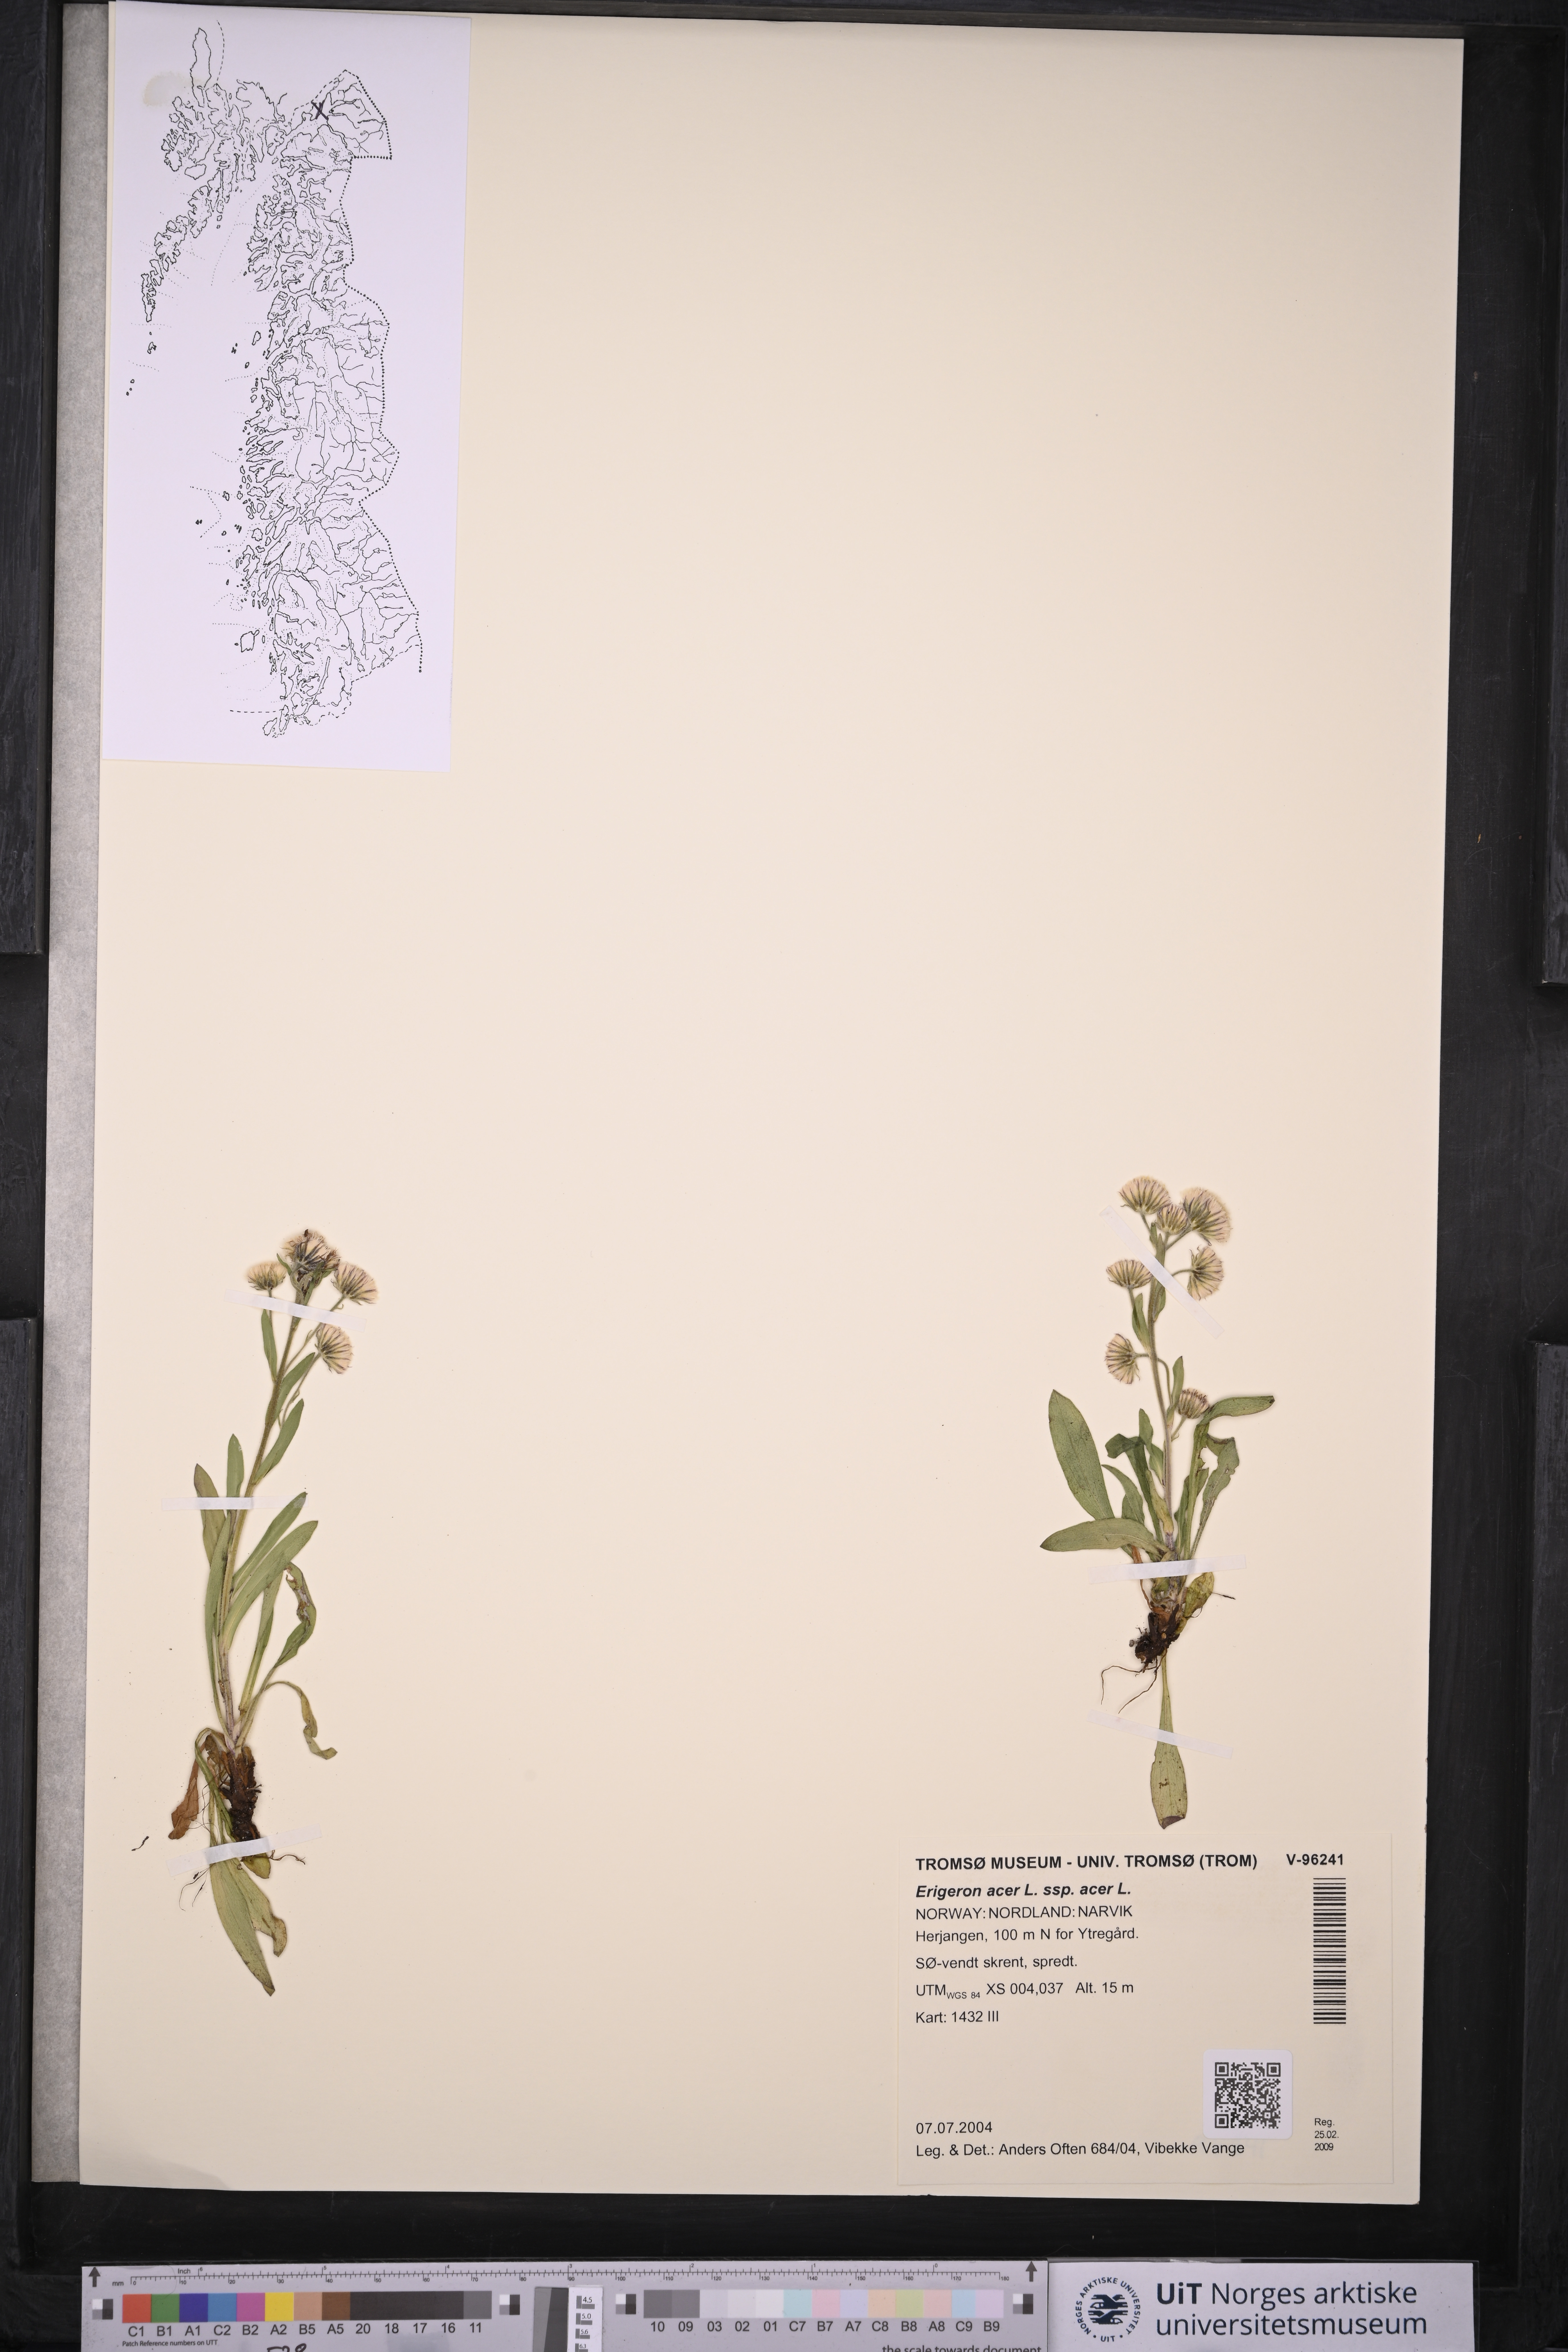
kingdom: Plantae
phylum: Tracheophyta
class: Magnoliopsida
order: Asterales
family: Asteraceae
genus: Erigeron
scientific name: Erigeron acris
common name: Blue fleabane
